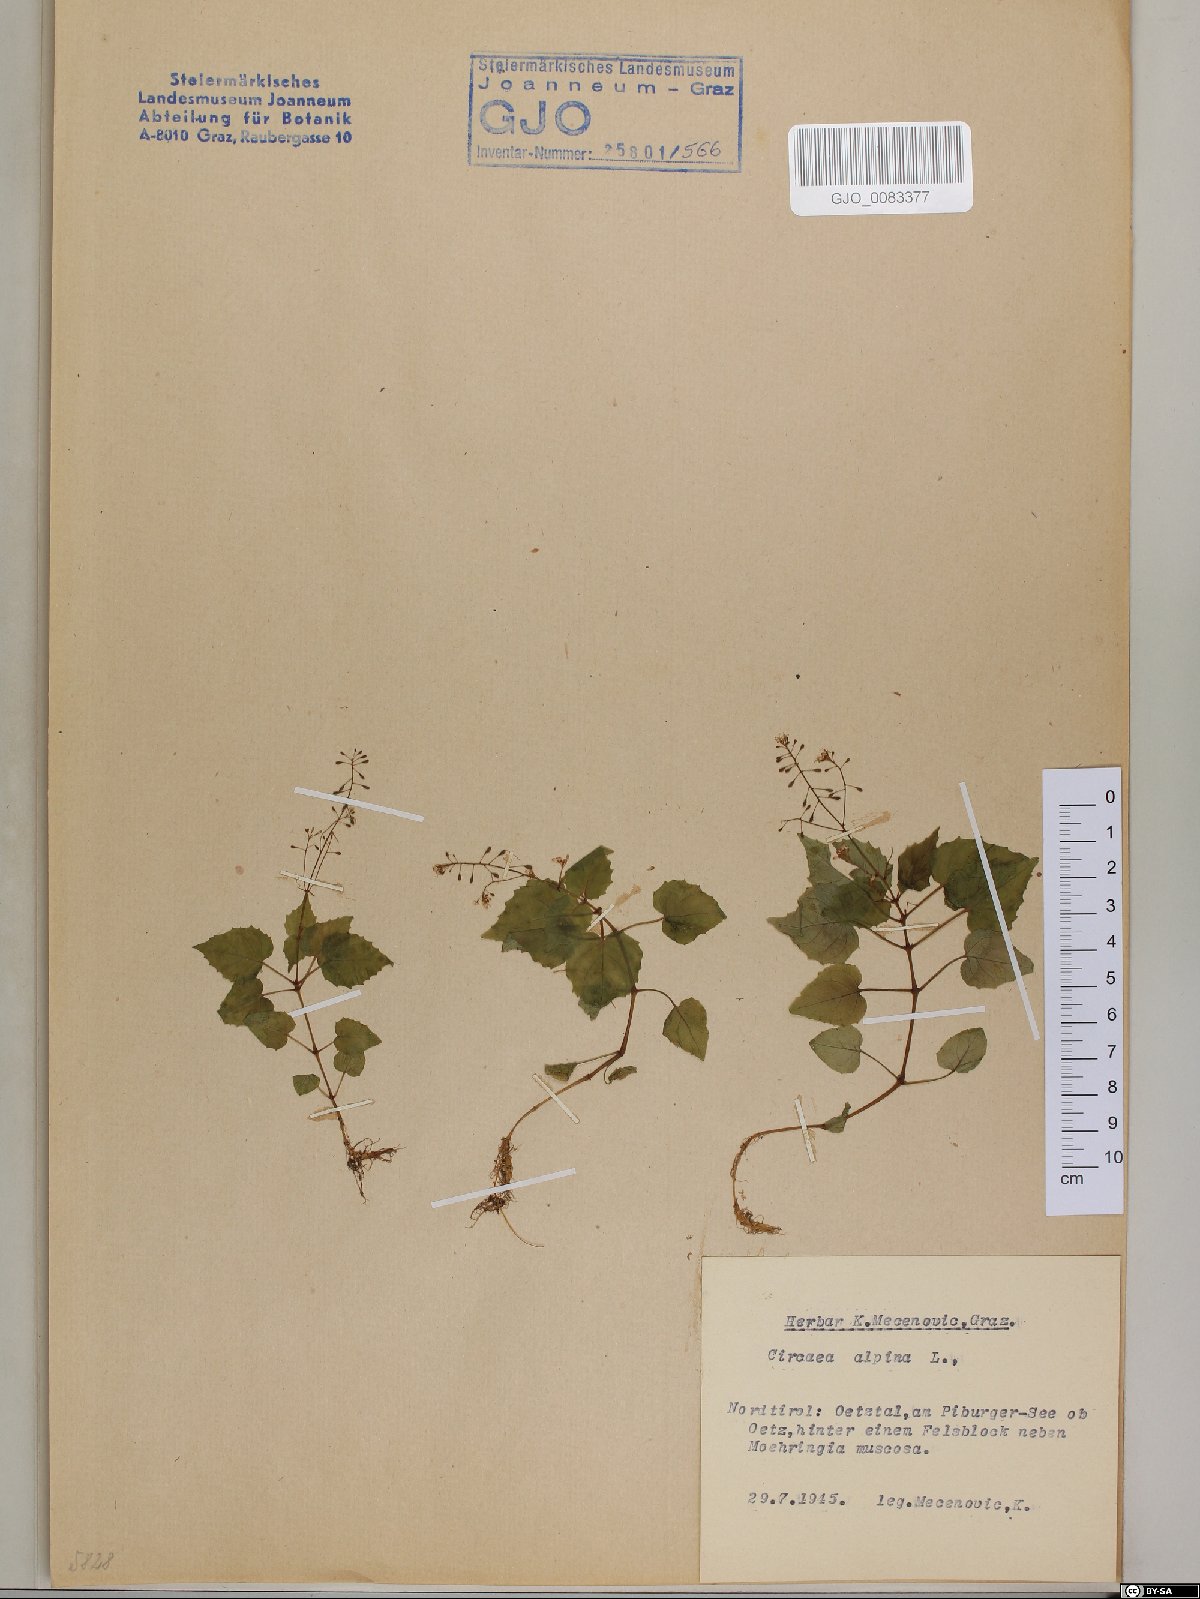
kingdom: Plantae
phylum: Tracheophyta
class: Magnoliopsida
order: Myrtales
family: Onagraceae
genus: Circaea
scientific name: Circaea alpina
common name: Alpine enchanter's-nightshade
